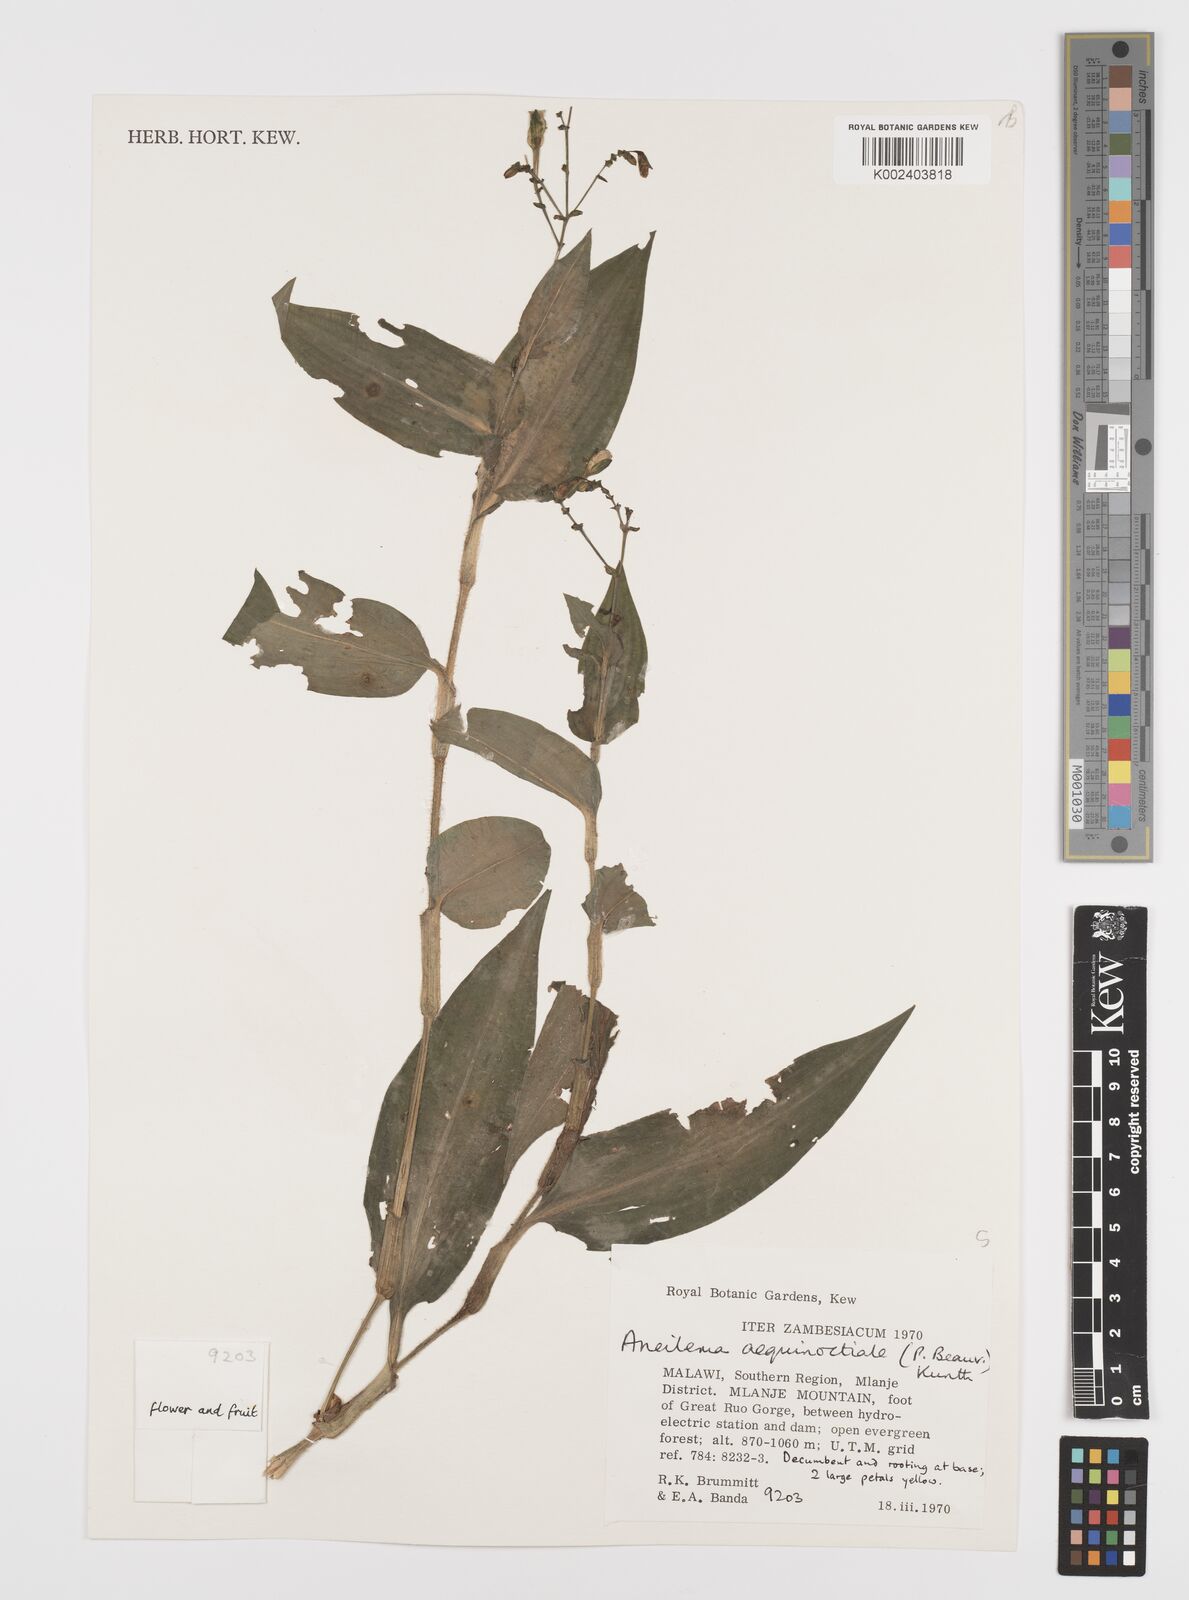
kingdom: Plantae
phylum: Tracheophyta
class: Liliopsida
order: Commelinales
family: Commelinaceae
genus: Aneilema
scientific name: Aneilema aequinoctiale
